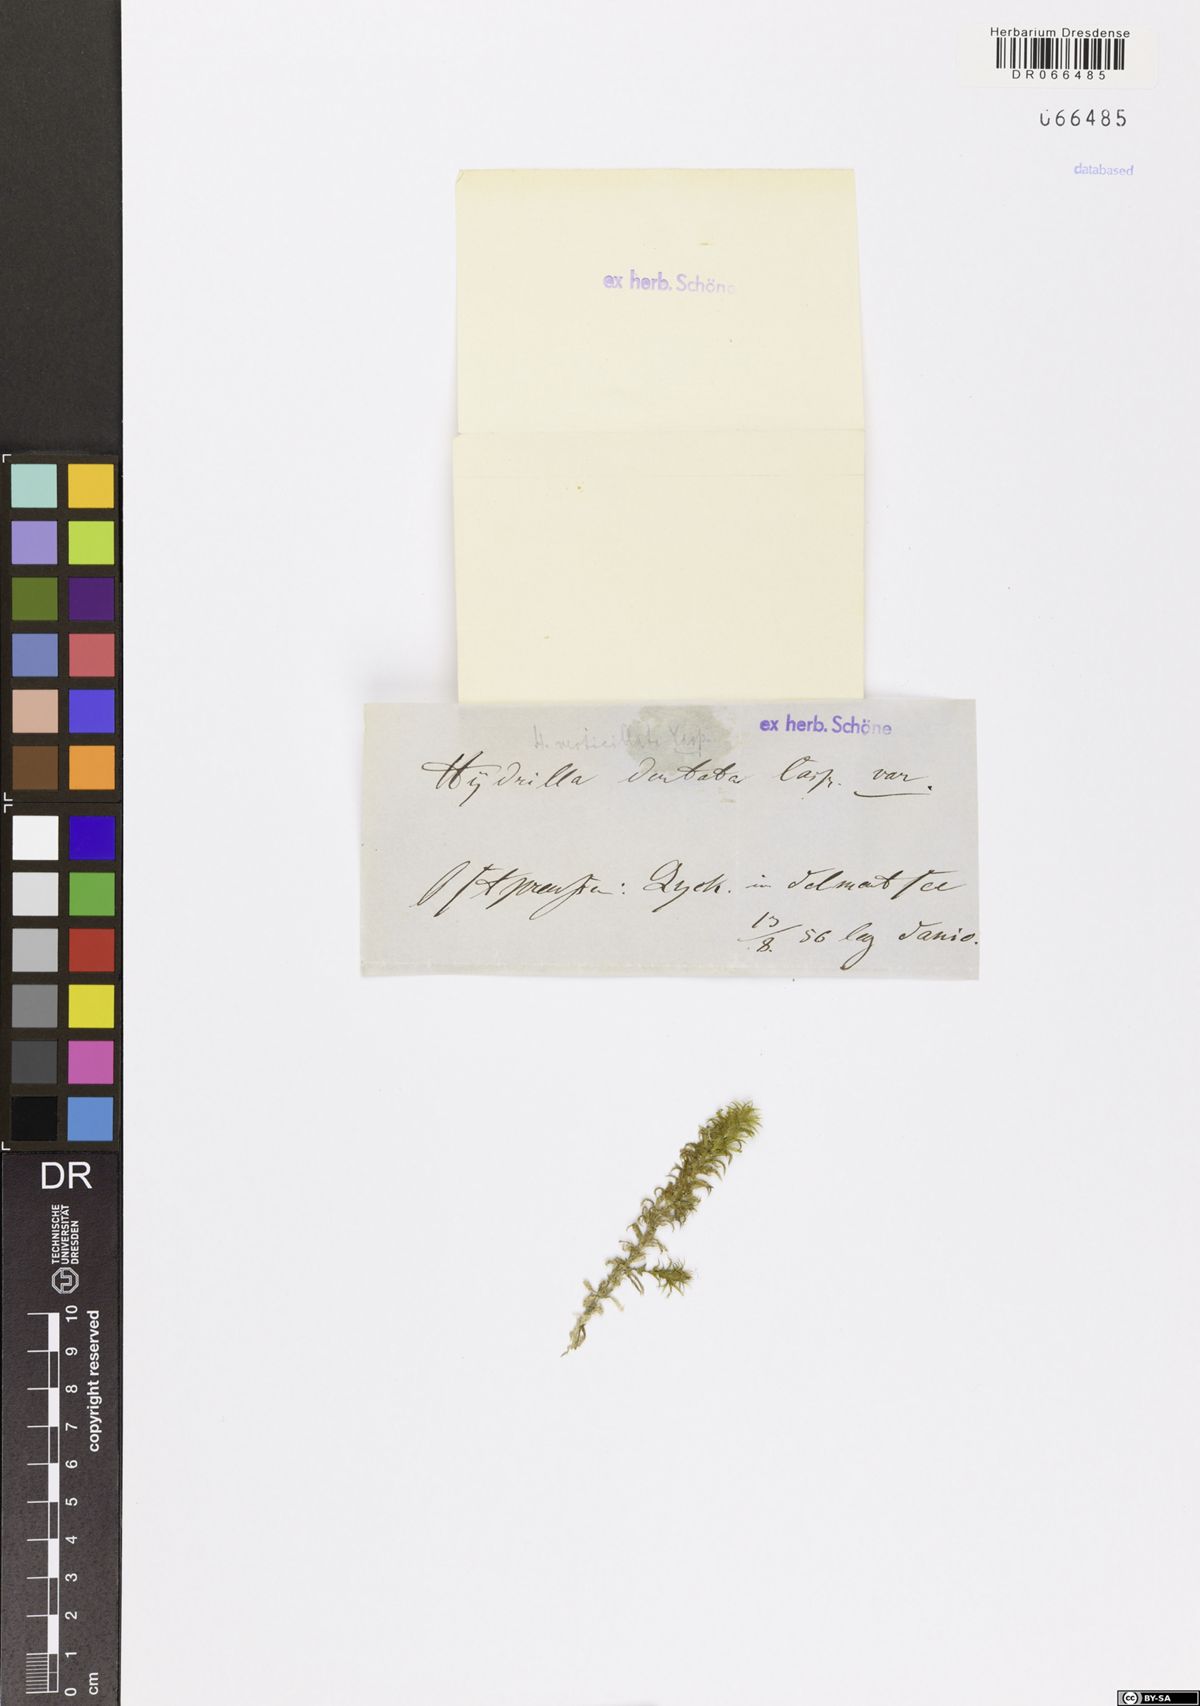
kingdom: Plantae
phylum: Tracheophyta
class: Liliopsida
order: Alismatales
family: Hydrocharitaceae
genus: Hydrilla
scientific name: Hydrilla verticillata
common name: Florida-elodea
